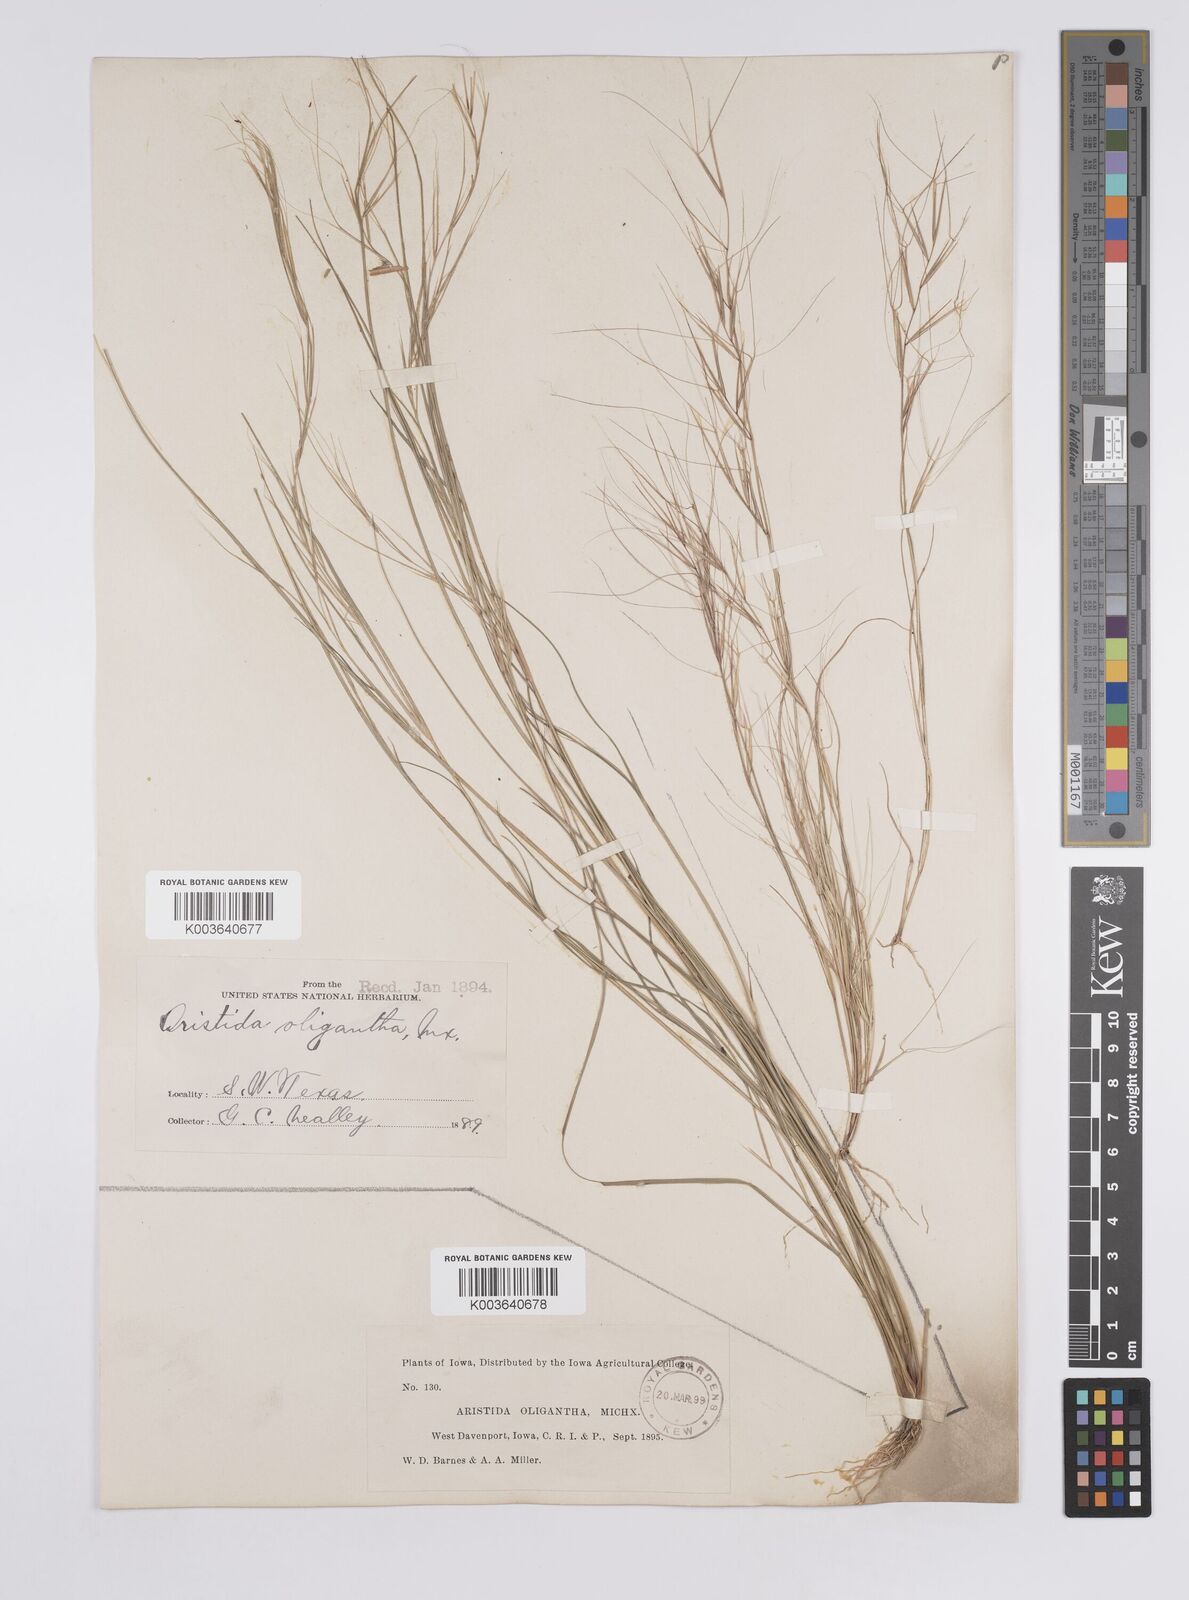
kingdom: Plantae
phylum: Tracheophyta
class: Liliopsida
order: Poales
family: Poaceae
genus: Aristida
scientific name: Aristida oligantha
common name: Few-flowered aristida
